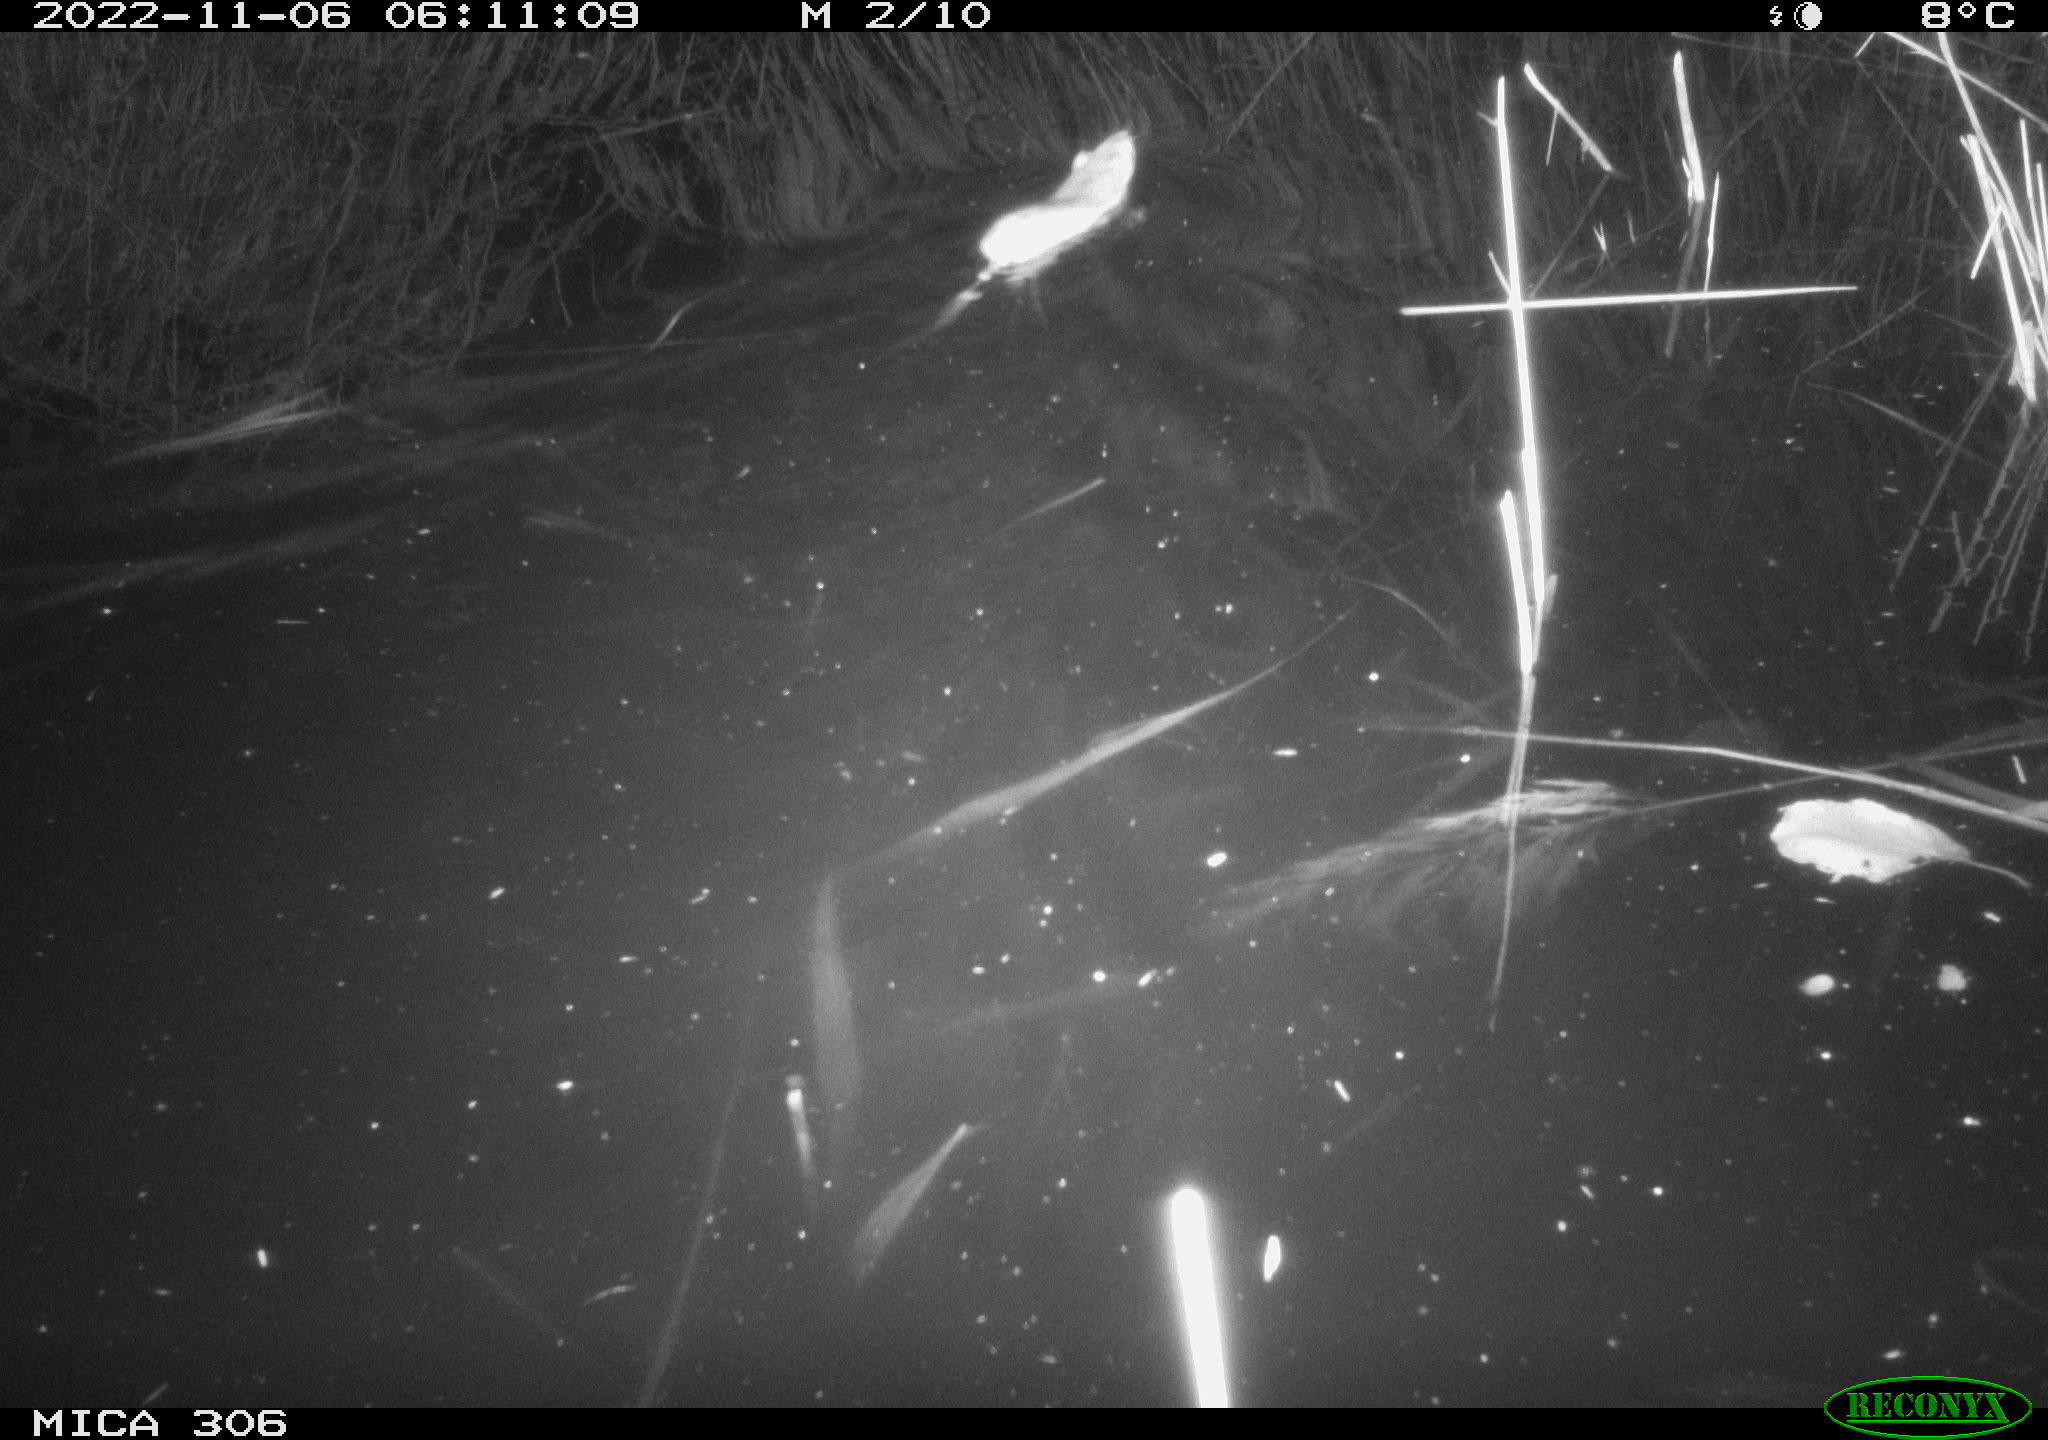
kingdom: Animalia
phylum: Chordata
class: Mammalia
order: Rodentia
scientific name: Rodentia
